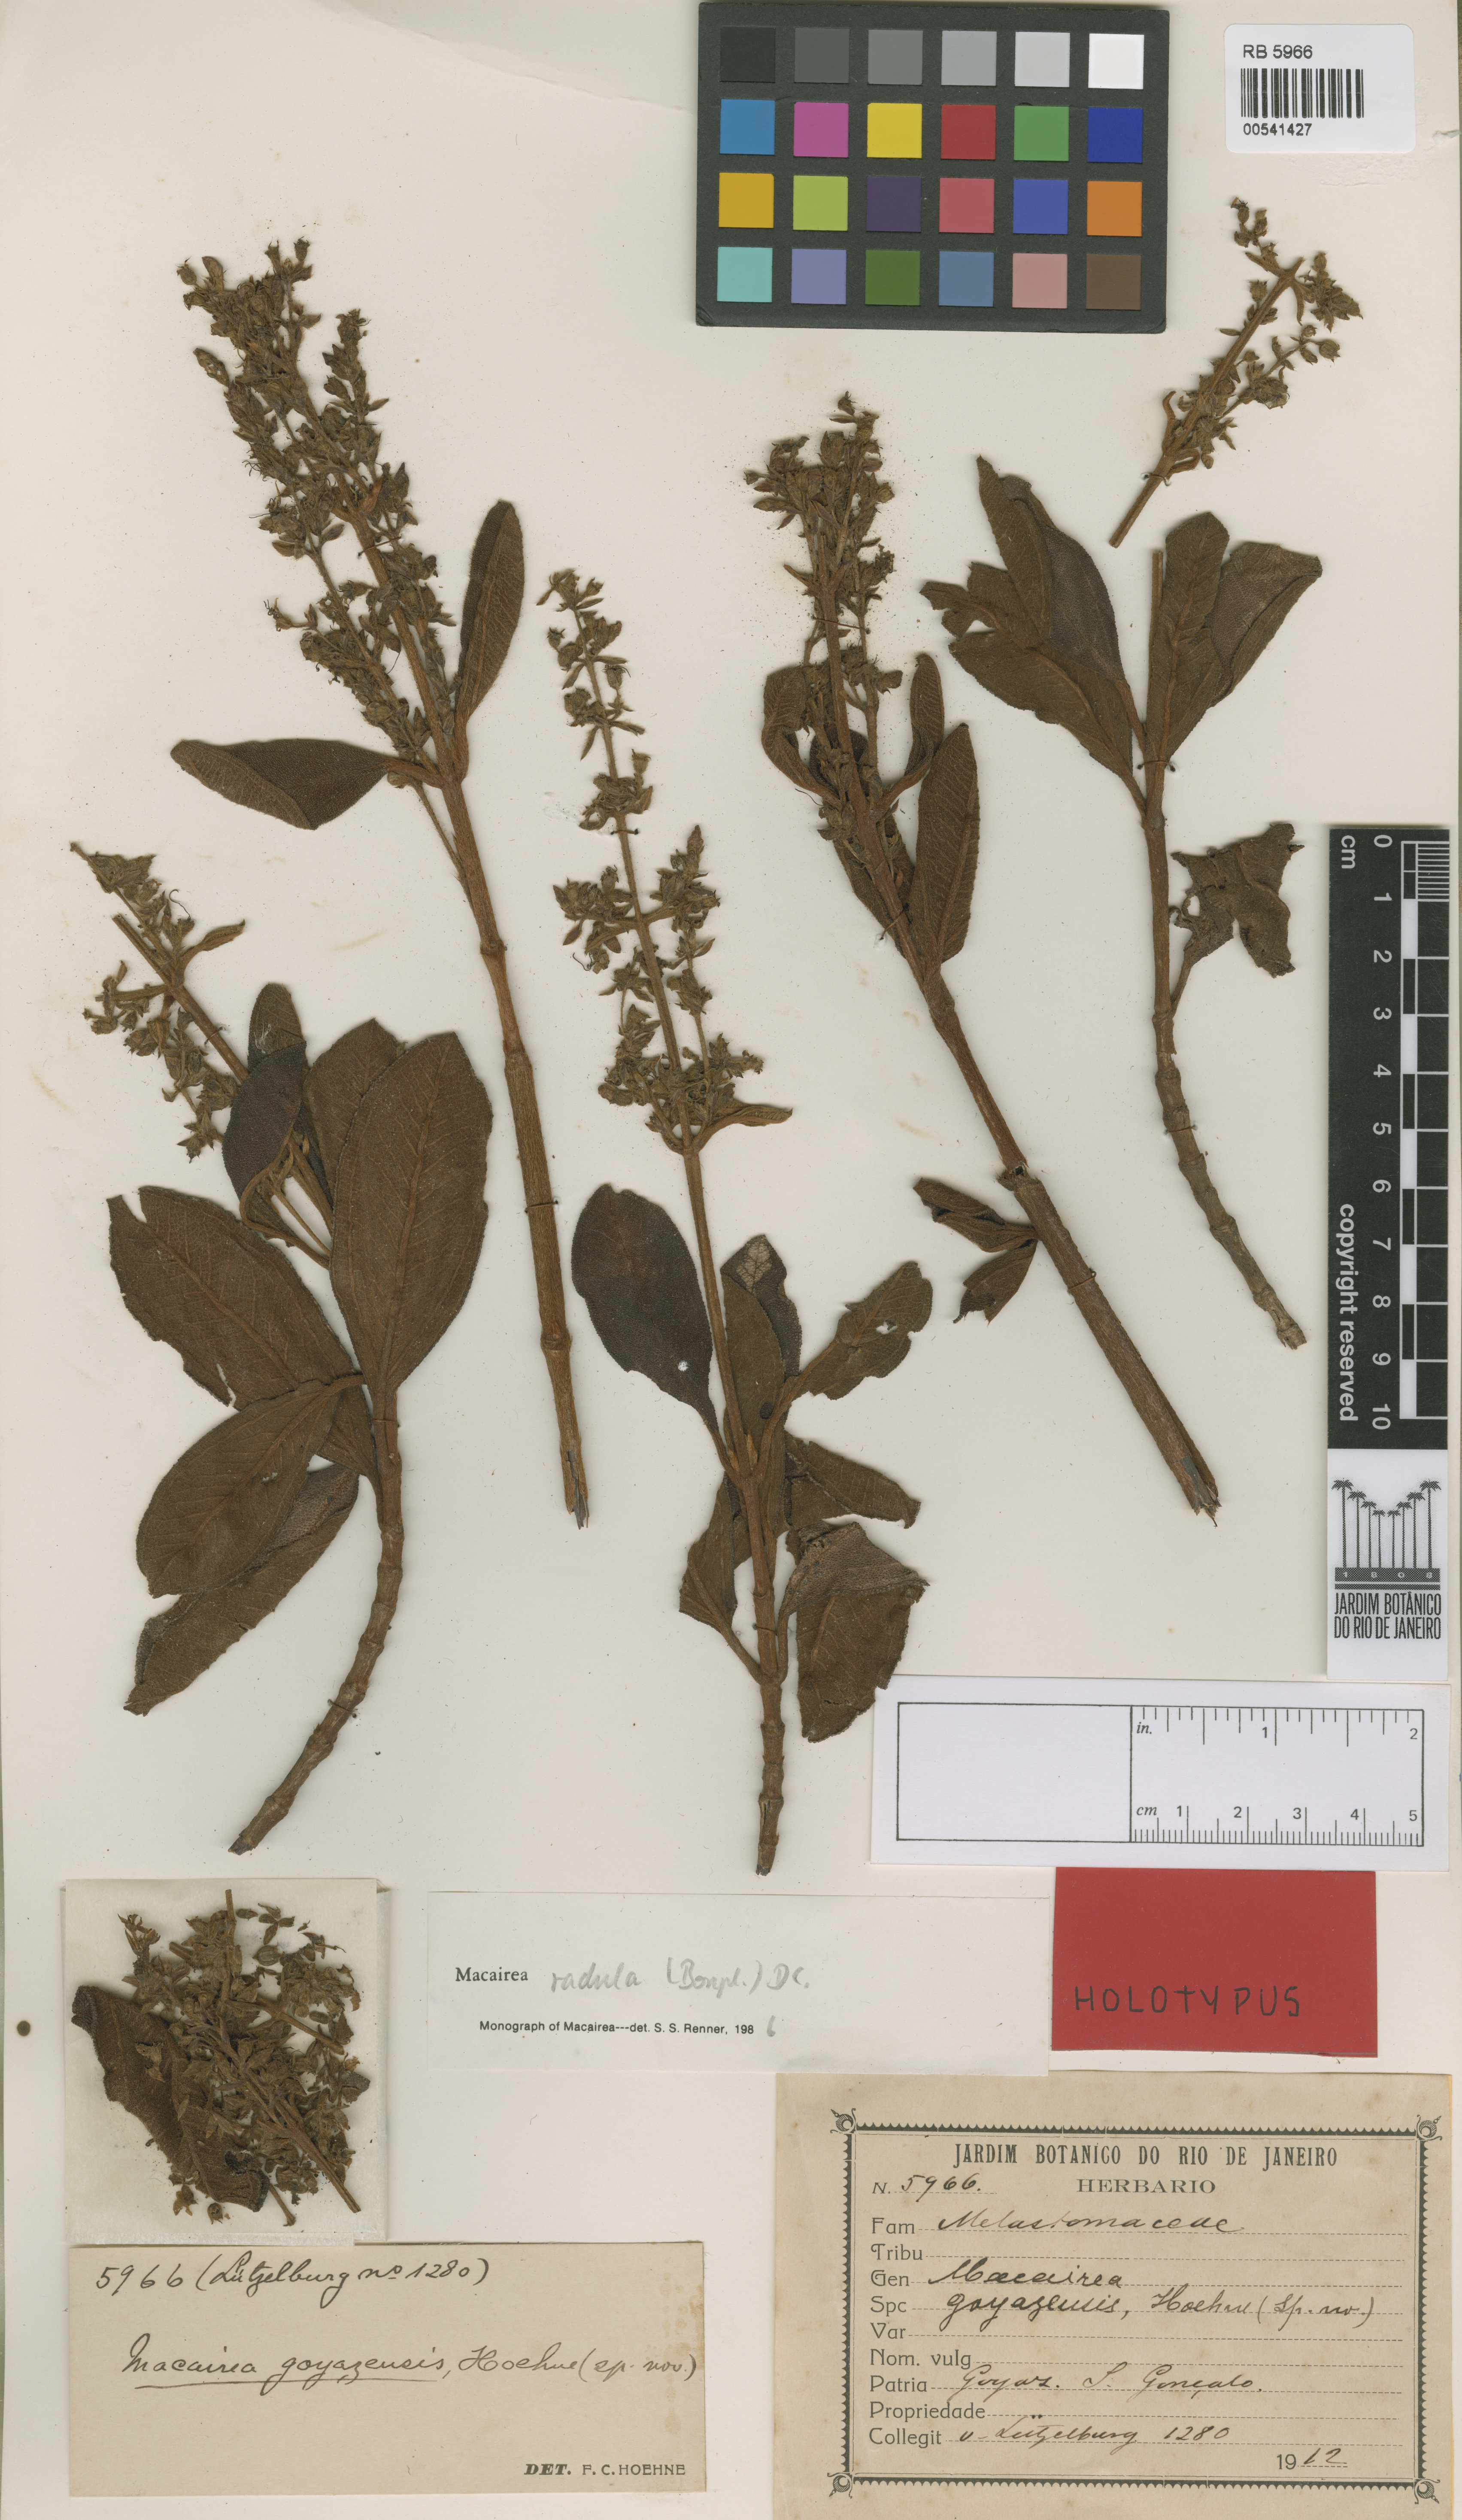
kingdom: Plantae
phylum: Tracheophyta
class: Magnoliopsida
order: Myrtales
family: Melastomataceae
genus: Macairea
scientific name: Macairea radula
